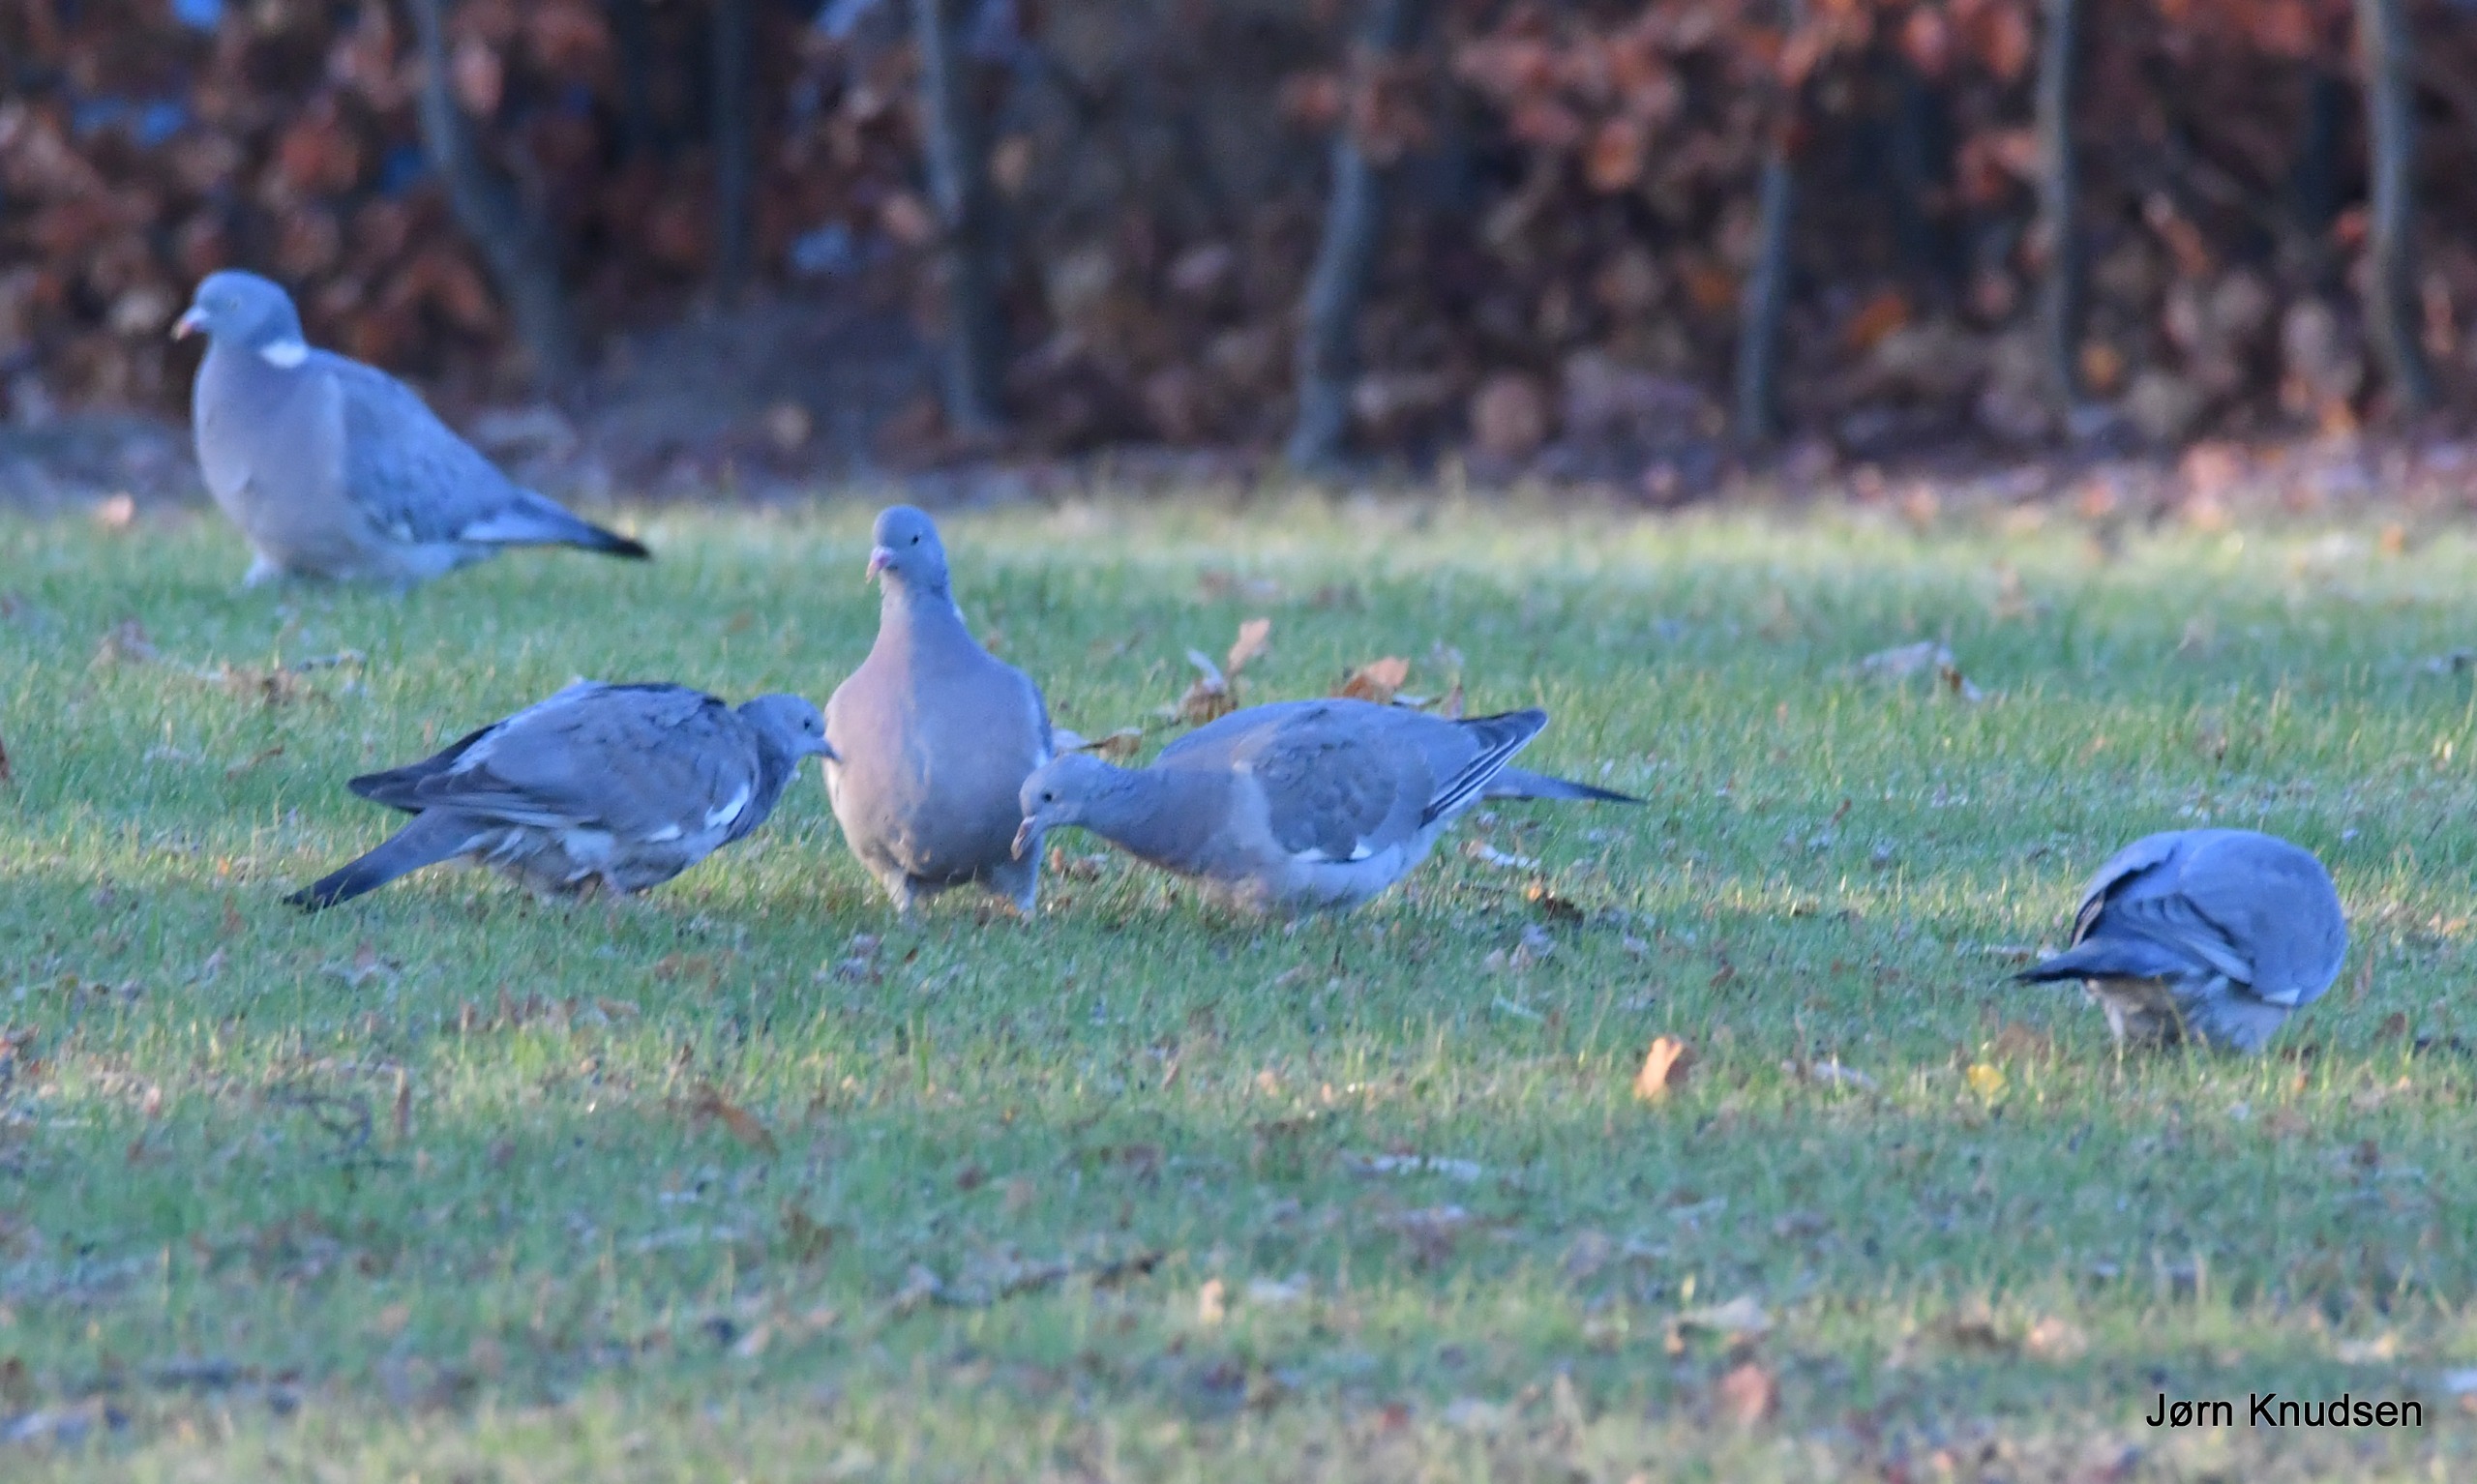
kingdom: Animalia
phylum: Chordata
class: Aves
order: Columbiformes
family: Columbidae
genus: Columba
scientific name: Columba palumbus
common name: Ringdue
